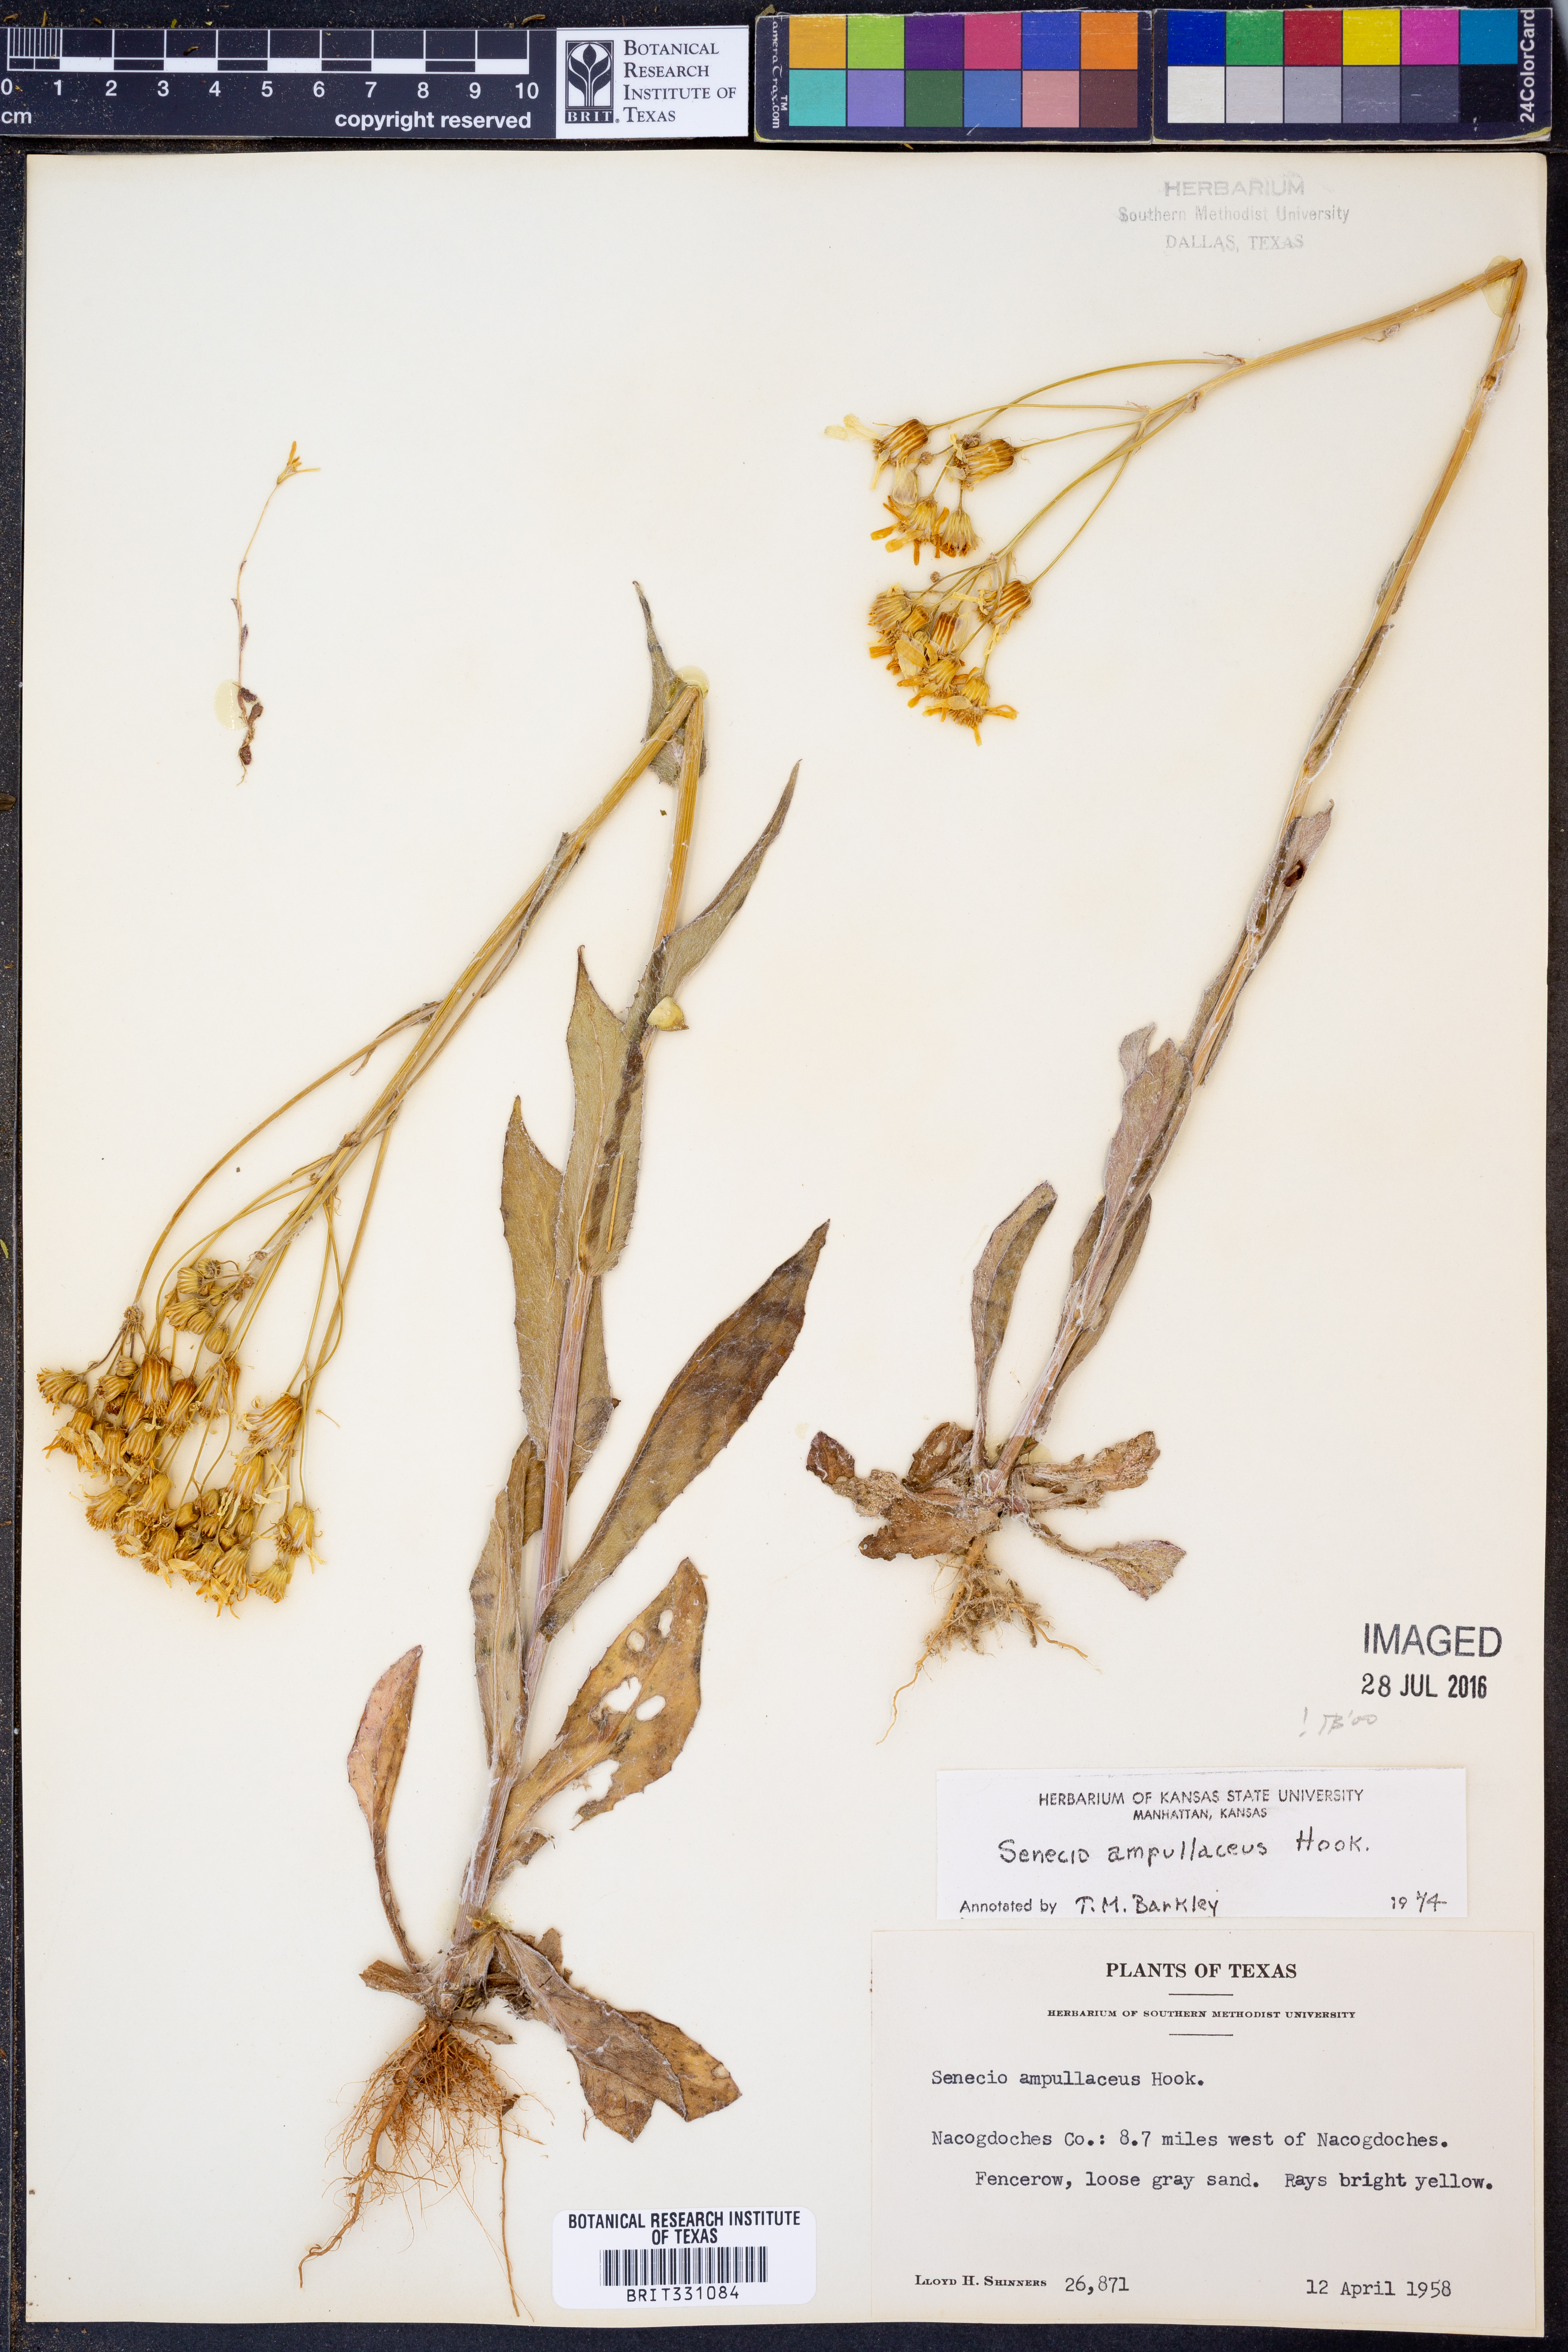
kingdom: Plantae
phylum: Tracheophyta
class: Magnoliopsida
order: Asterales
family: Asteraceae
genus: Senecio
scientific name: Senecio ampullaceus
